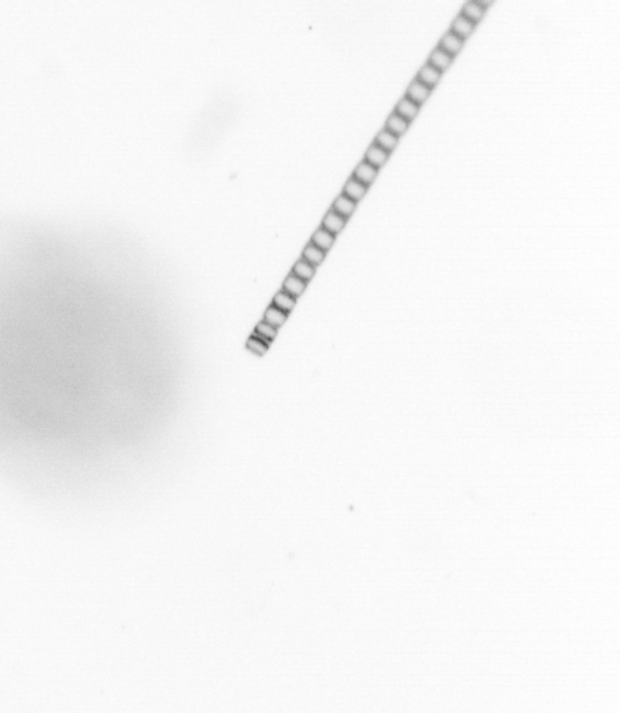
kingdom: Chromista
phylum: Ochrophyta
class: Bacillariophyceae
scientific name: Bacillariophyceae
